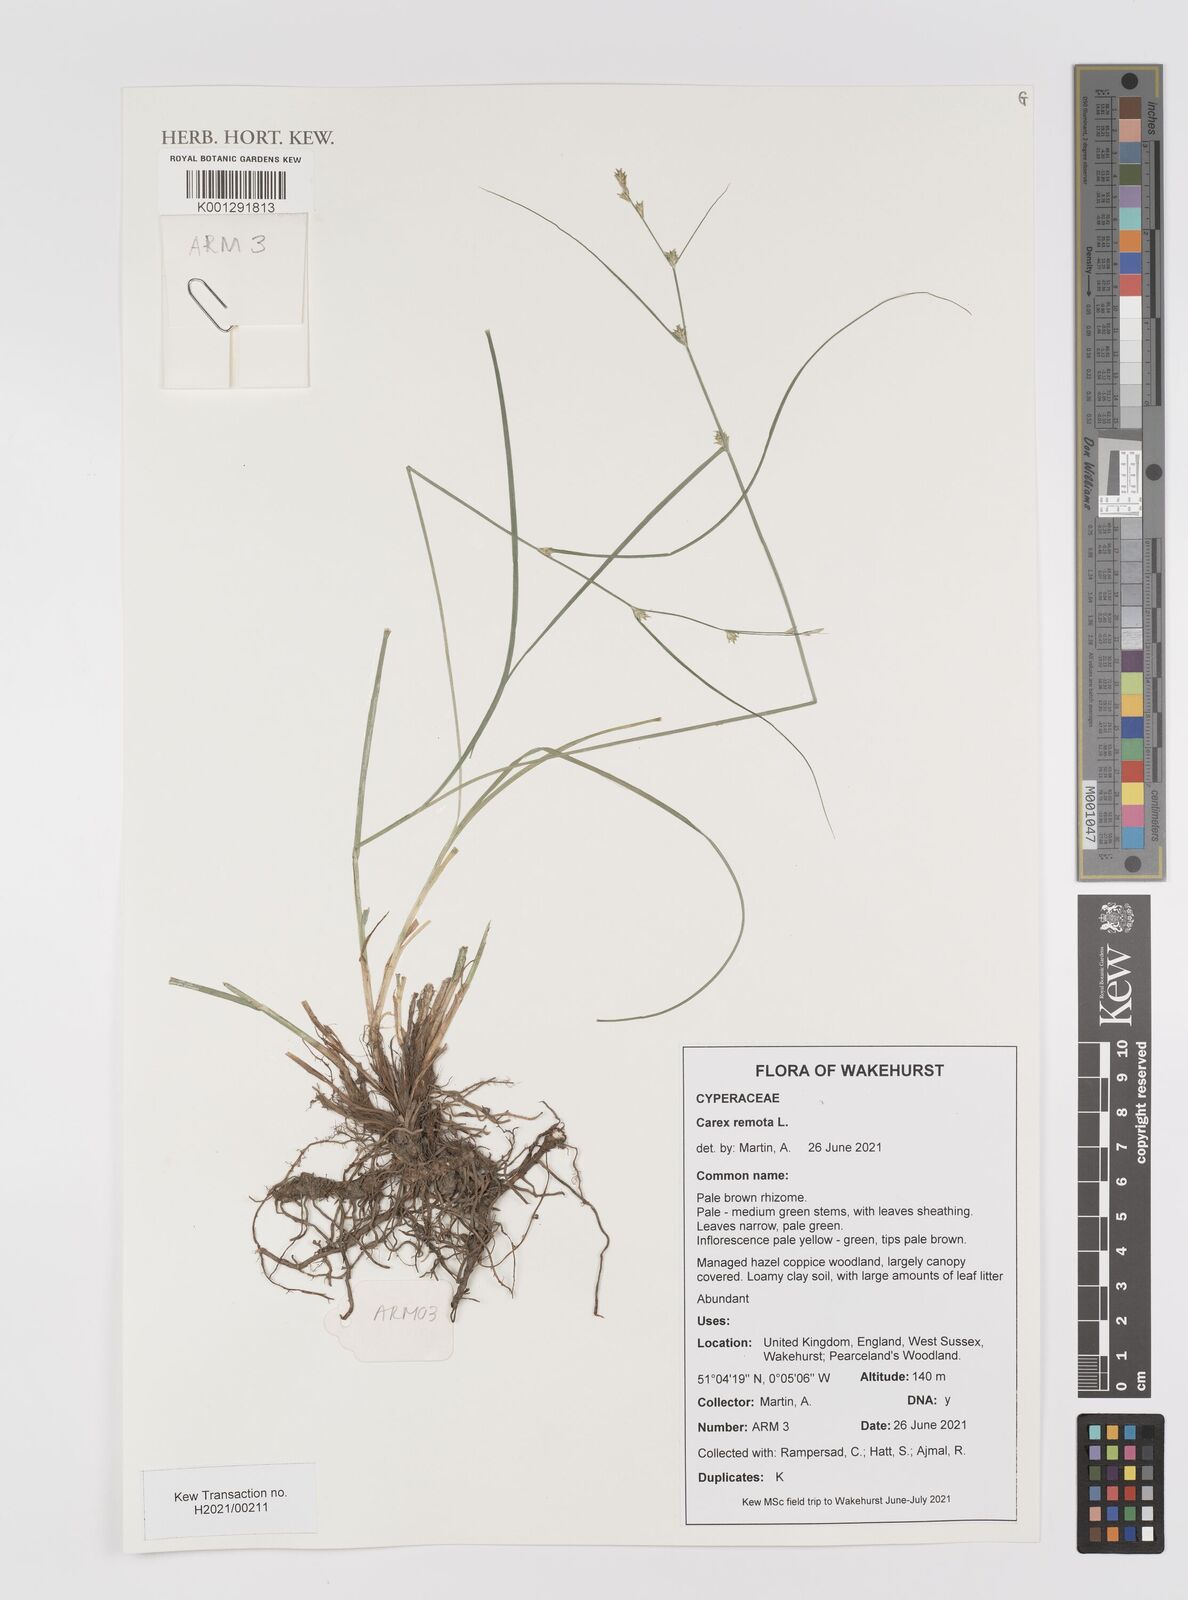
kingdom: Plantae
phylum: Tracheophyta
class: Liliopsida
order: Poales
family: Cyperaceae
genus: Carex
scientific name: Carex remota
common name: Remote sedge
